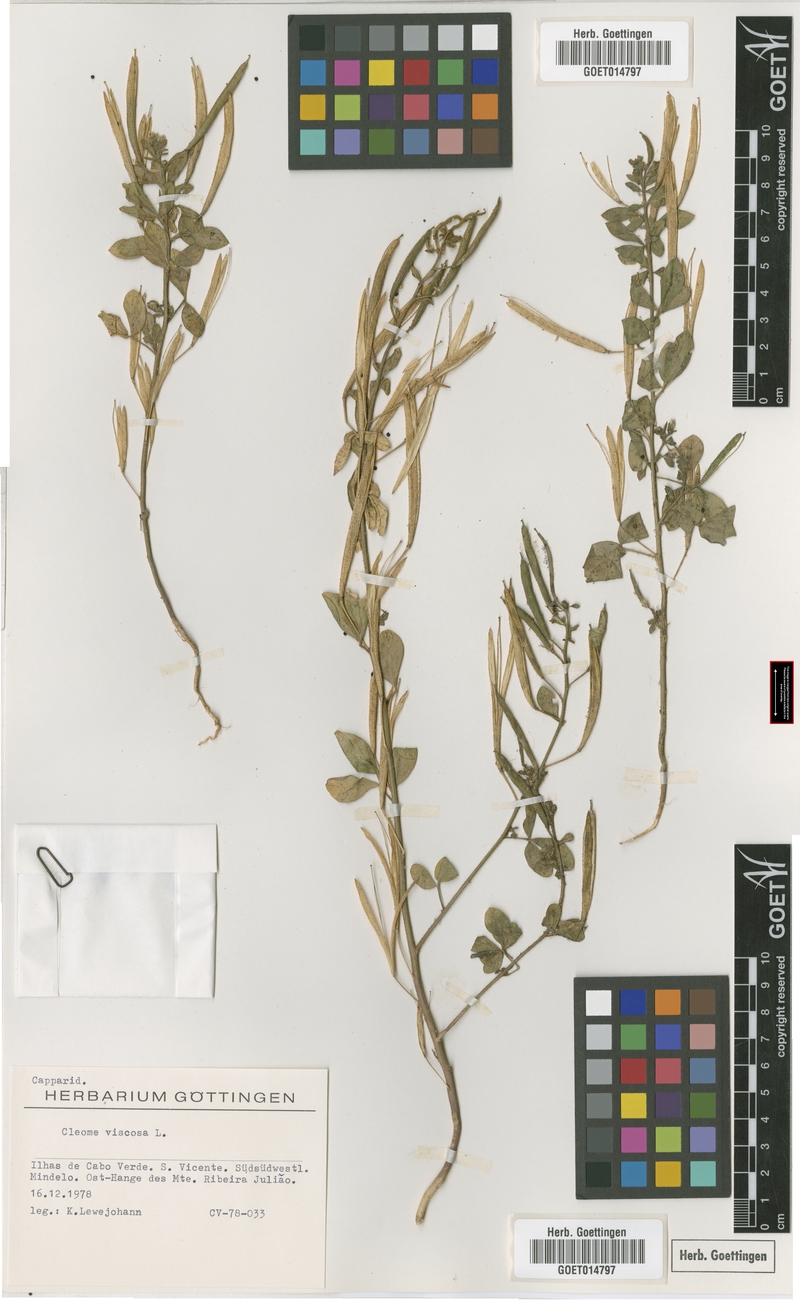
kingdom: Plantae
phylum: Tracheophyta
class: Magnoliopsida
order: Brassicales
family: Cleomaceae
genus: Arivela
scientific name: Arivela viscosa
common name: Asian spiderflower
